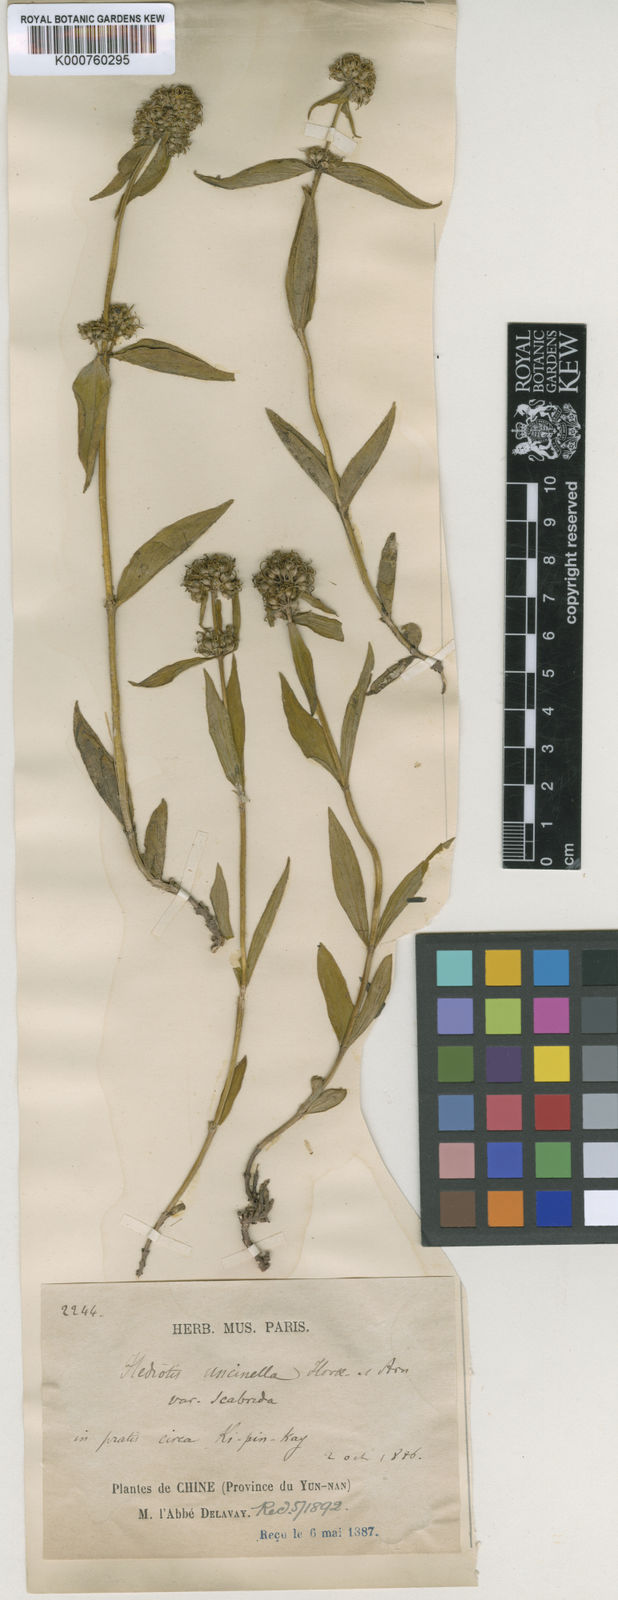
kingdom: Plantae
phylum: Tracheophyta
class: Magnoliopsida
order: Gentianales
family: Rubiaceae
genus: Hedyotis
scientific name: Hedyotis uncinella
